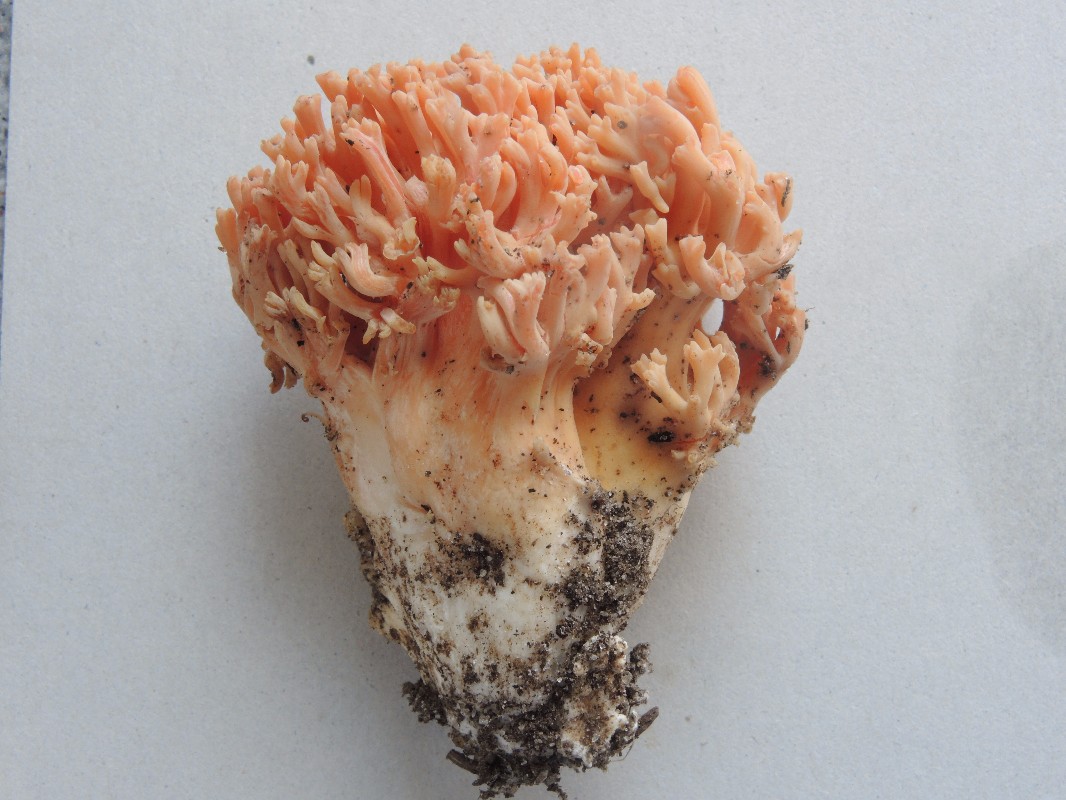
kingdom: Fungi
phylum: Basidiomycota
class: Agaricomycetes
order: Gomphales
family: Gomphaceae
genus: Ramaria
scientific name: Ramaria fagetorum
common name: abrikos-koralsvamp
